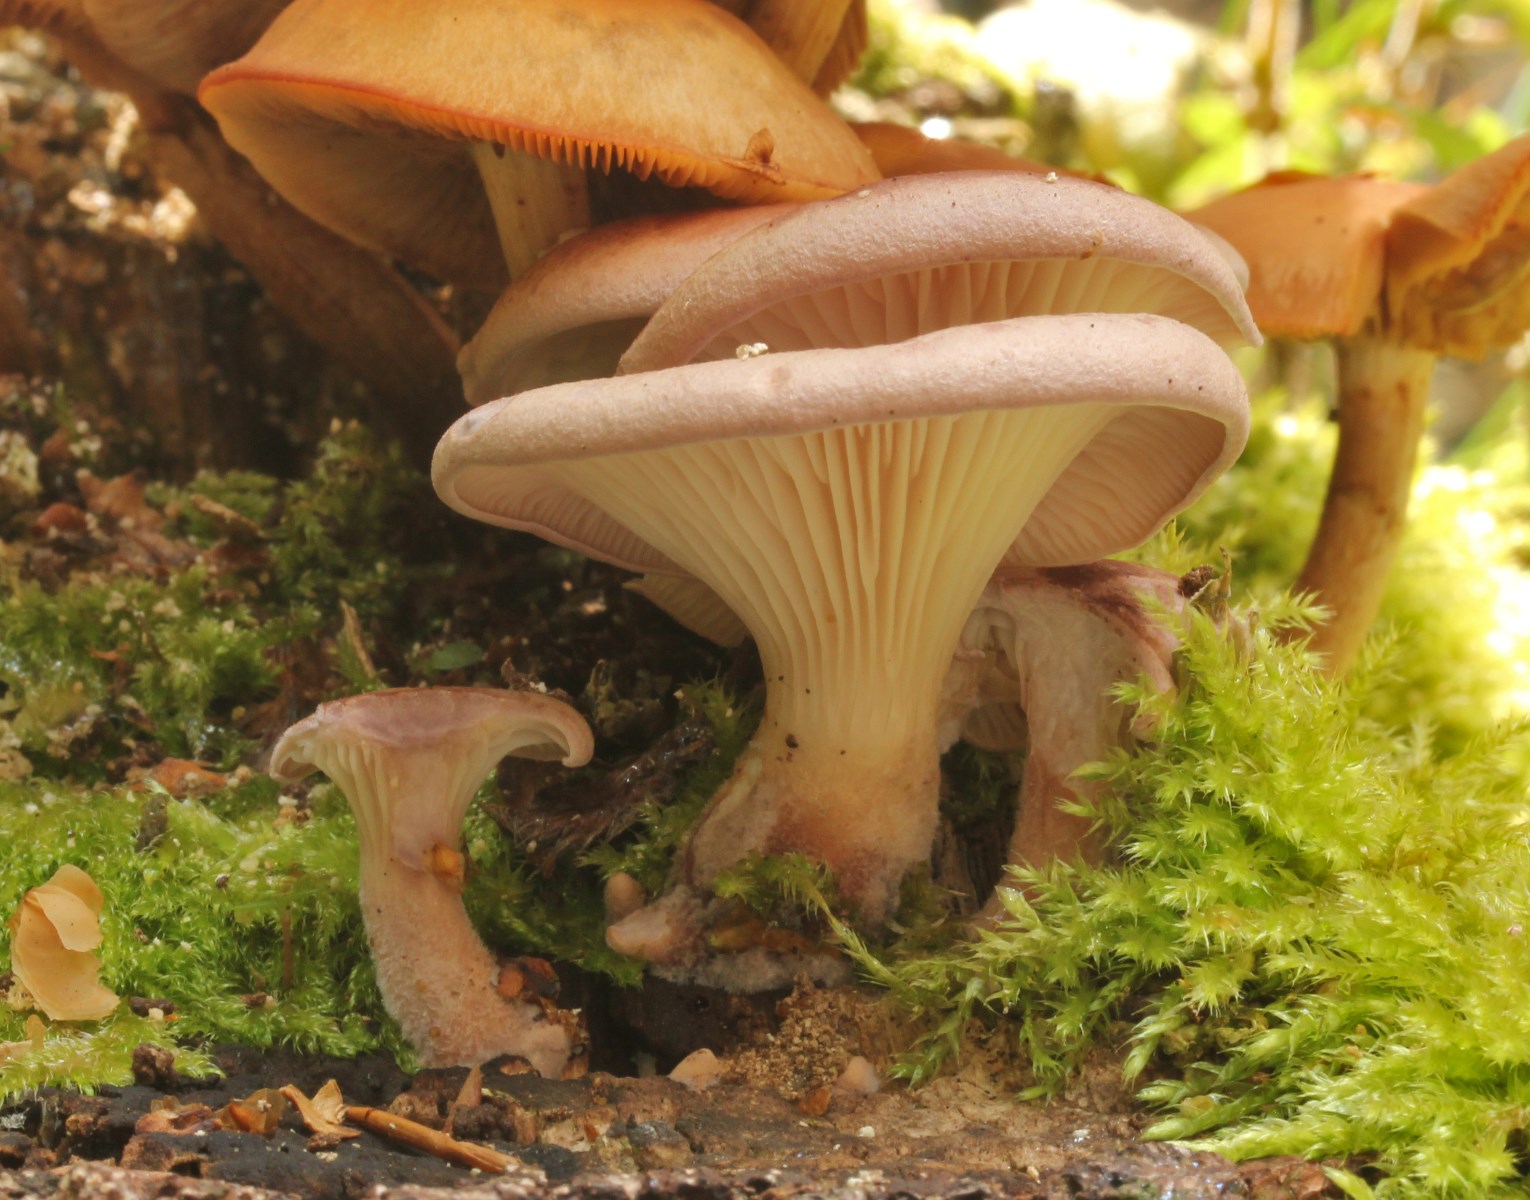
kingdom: Fungi
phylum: Basidiomycota
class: Agaricomycetes
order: Polyporales
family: Panaceae
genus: Panus
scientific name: Panus conchatus
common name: filtstokket læderhat
